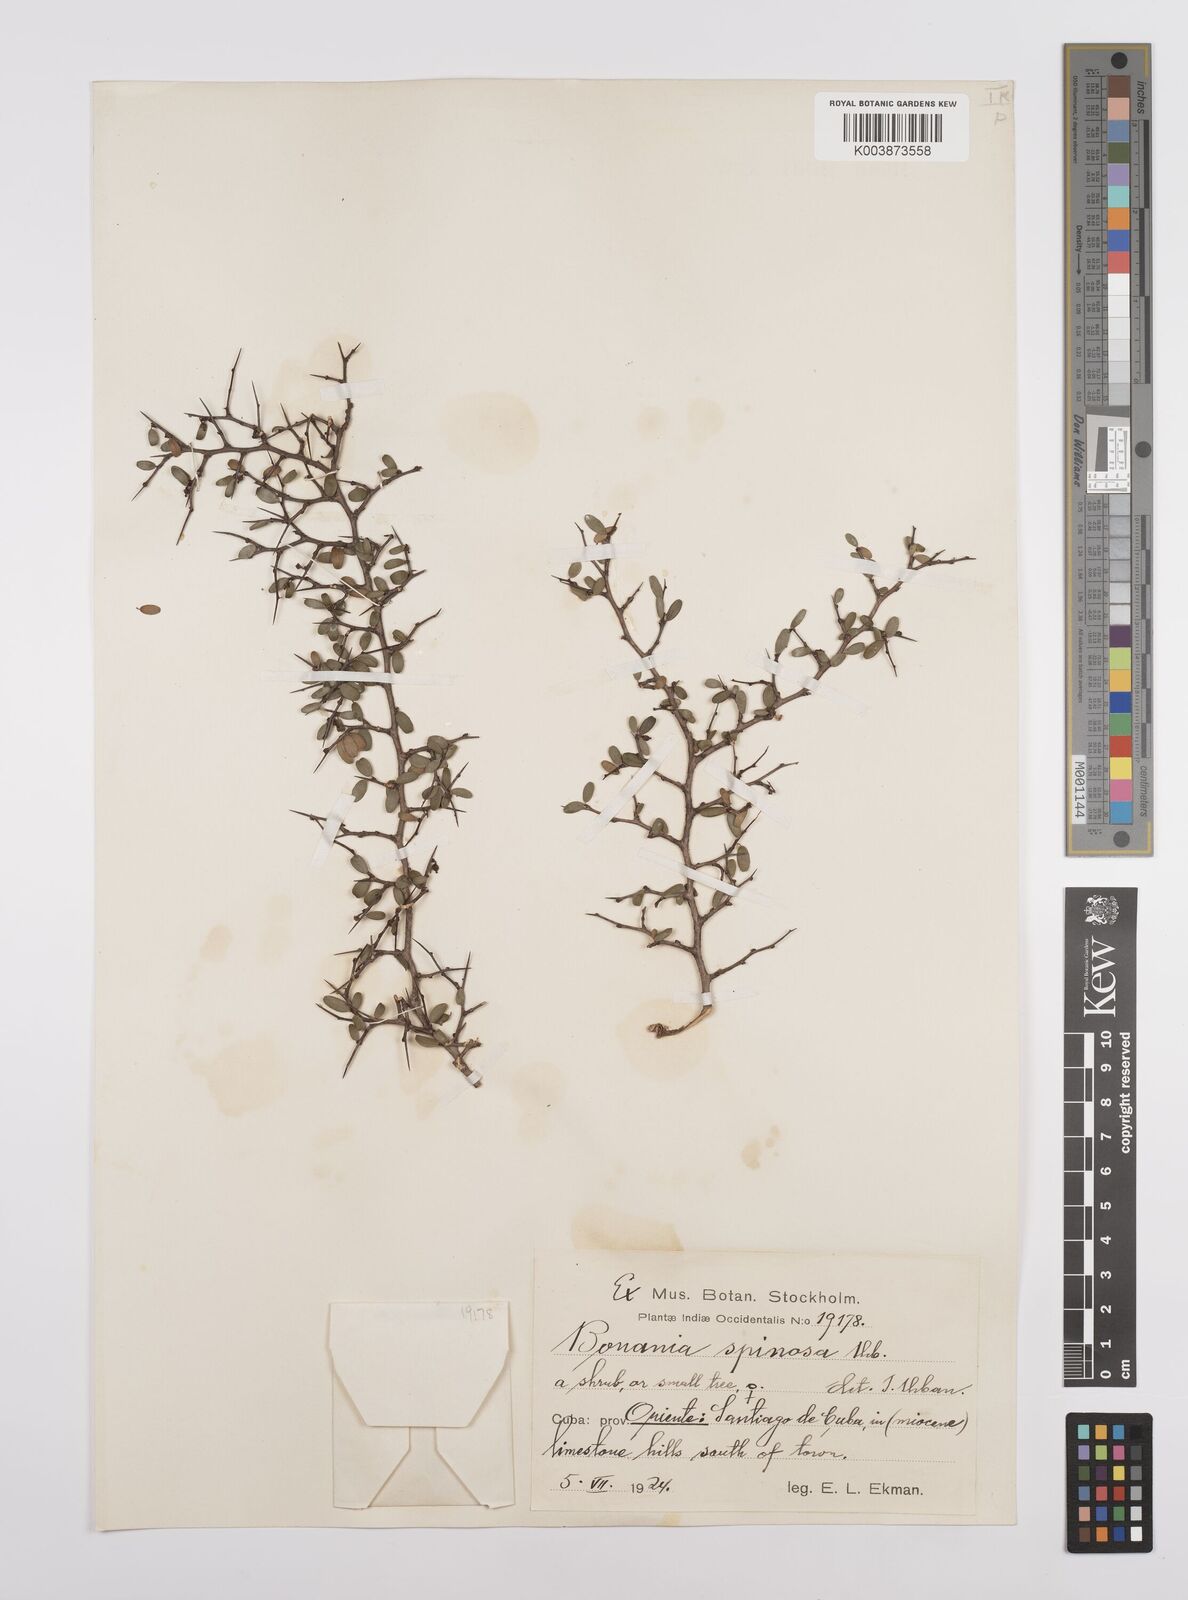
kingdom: Plantae
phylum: Tracheophyta
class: Magnoliopsida
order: Malpighiales
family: Euphorbiaceae
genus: Bonania
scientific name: Bonania elliptica
